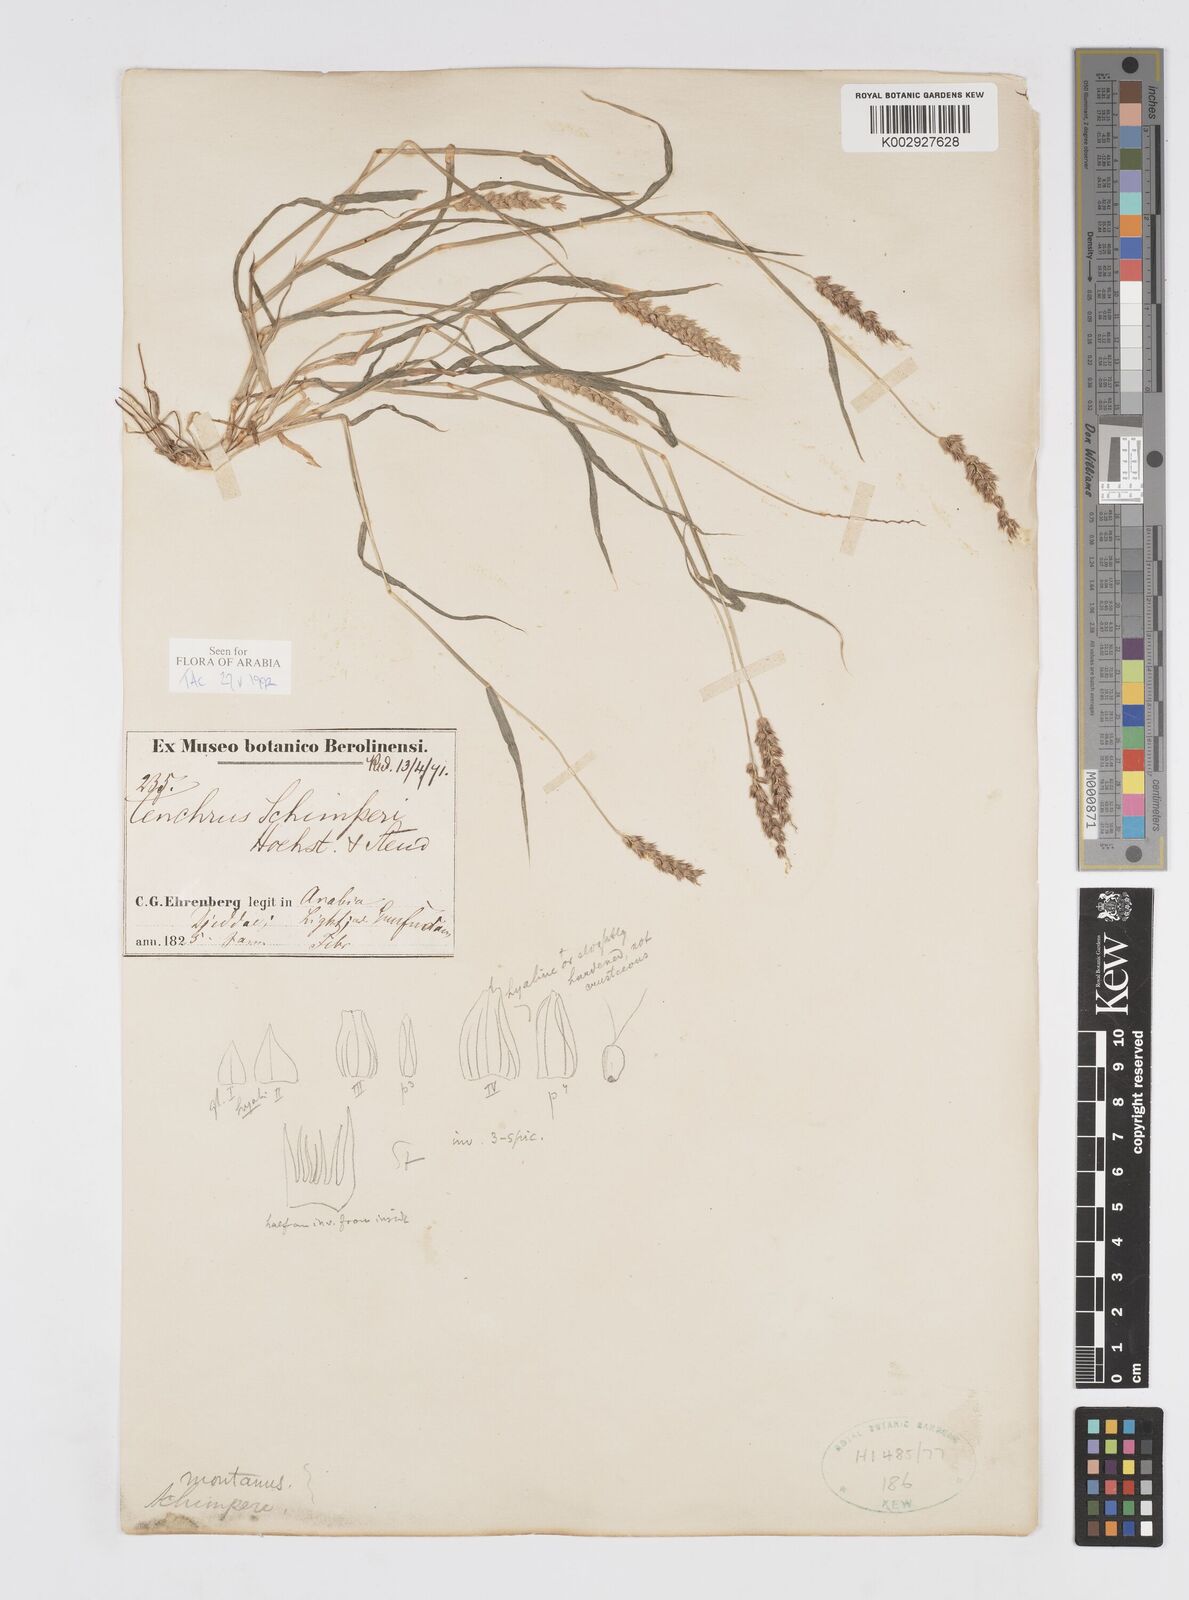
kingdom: Plantae
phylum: Tracheophyta
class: Liliopsida
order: Poales
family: Poaceae
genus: Cenchrus
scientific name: Cenchrus setigerus
